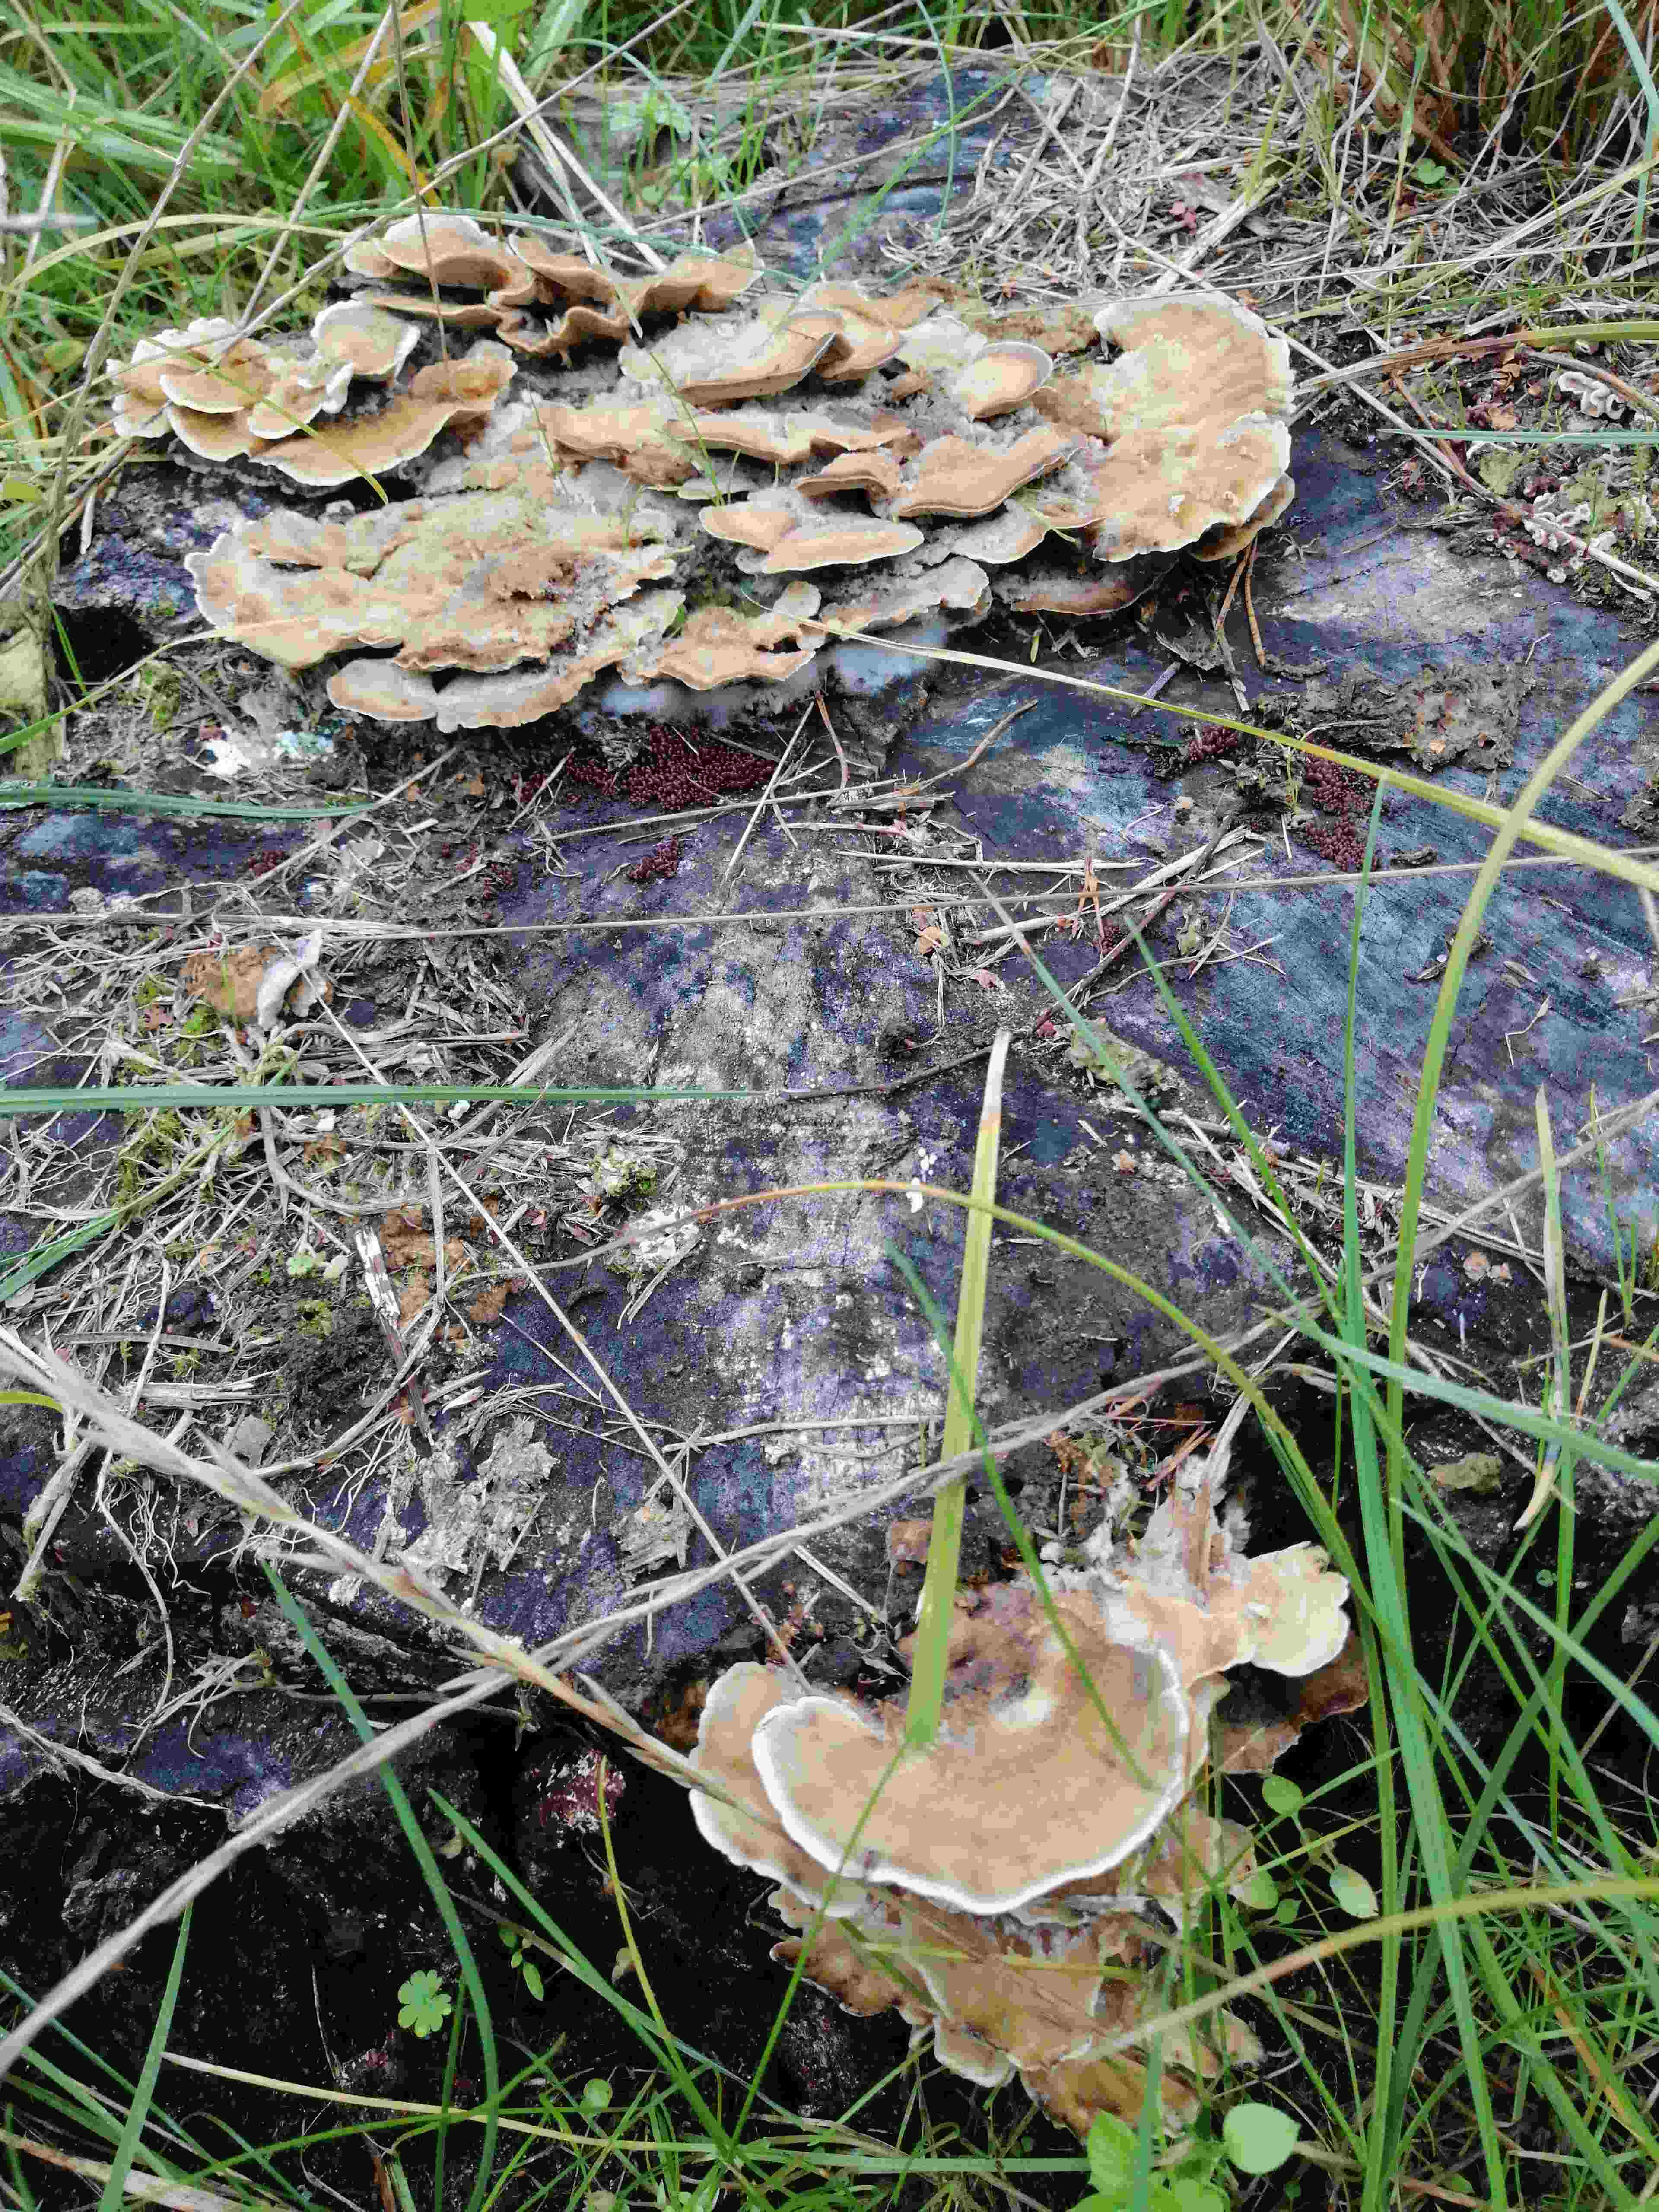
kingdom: Fungi
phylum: Basidiomycota
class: Agaricomycetes
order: Polyporales
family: Meripilaceae
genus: Meripilus
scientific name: Meripilus giganteus
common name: kæmpeporesvamp
